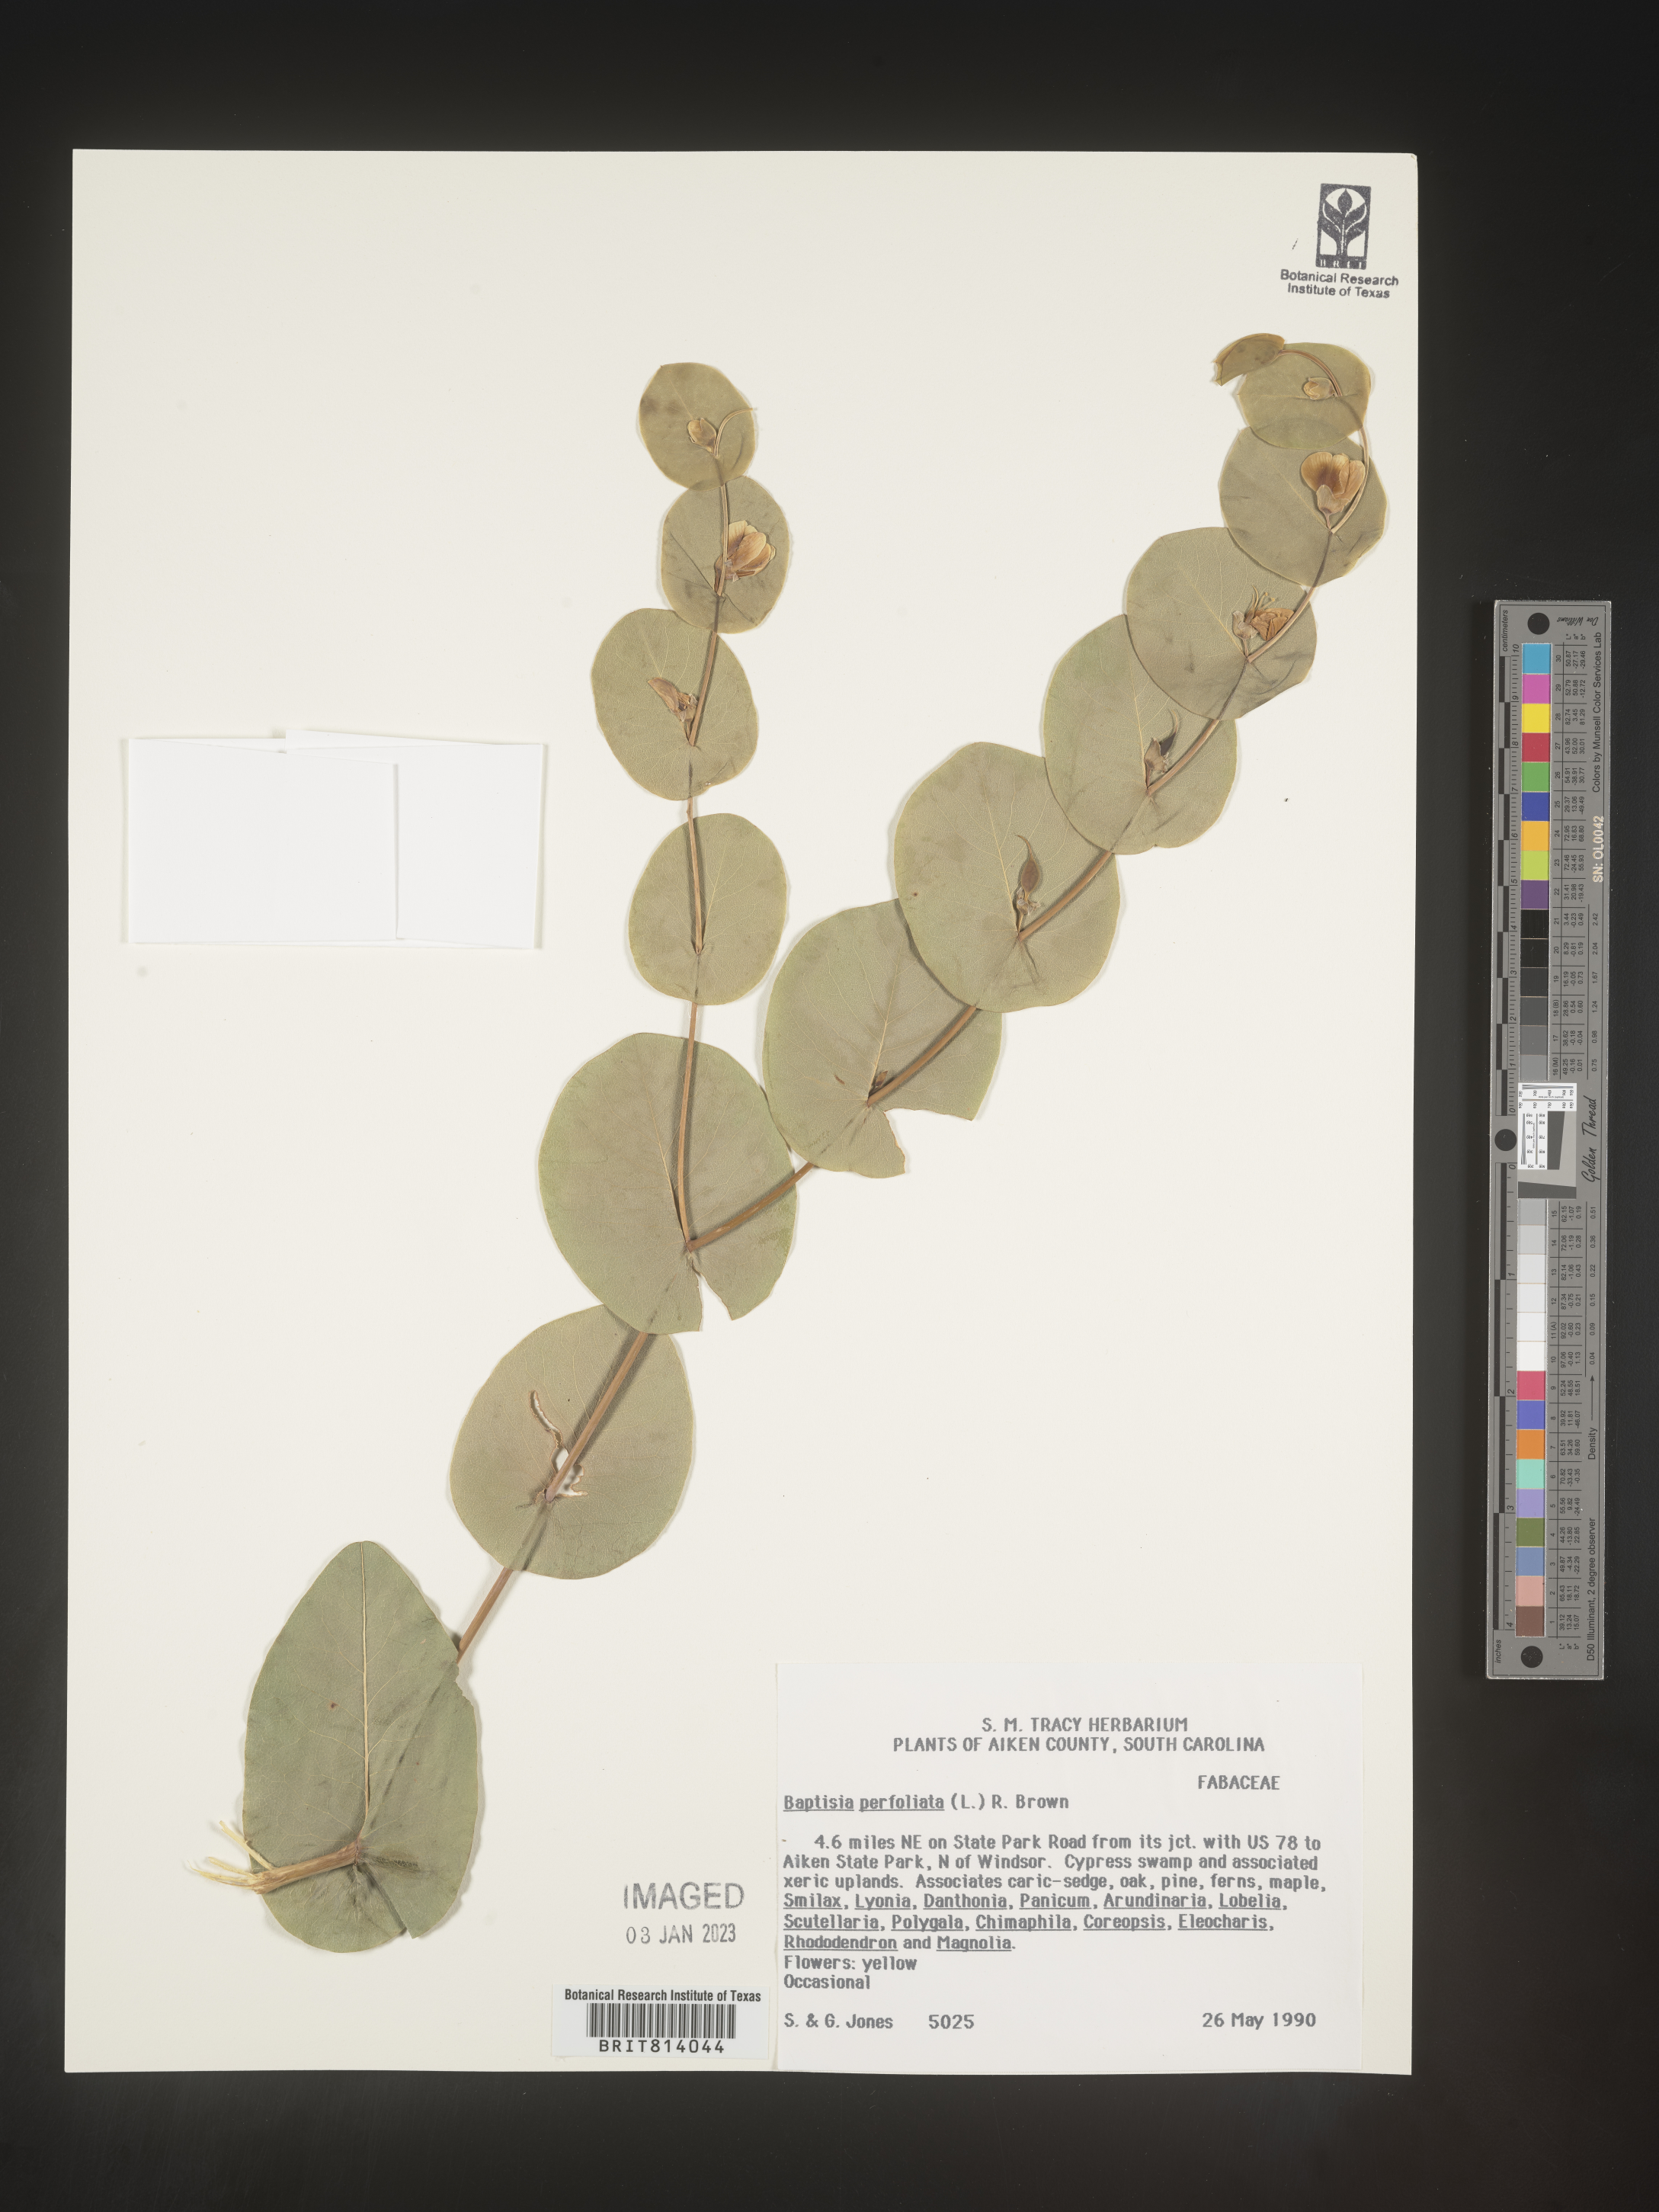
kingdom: Plantae
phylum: Tracheophyta
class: Magnoliopsida
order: Fabales
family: Fabaceae
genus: Baptisia
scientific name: Baptisia perfoliata
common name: Catbells
